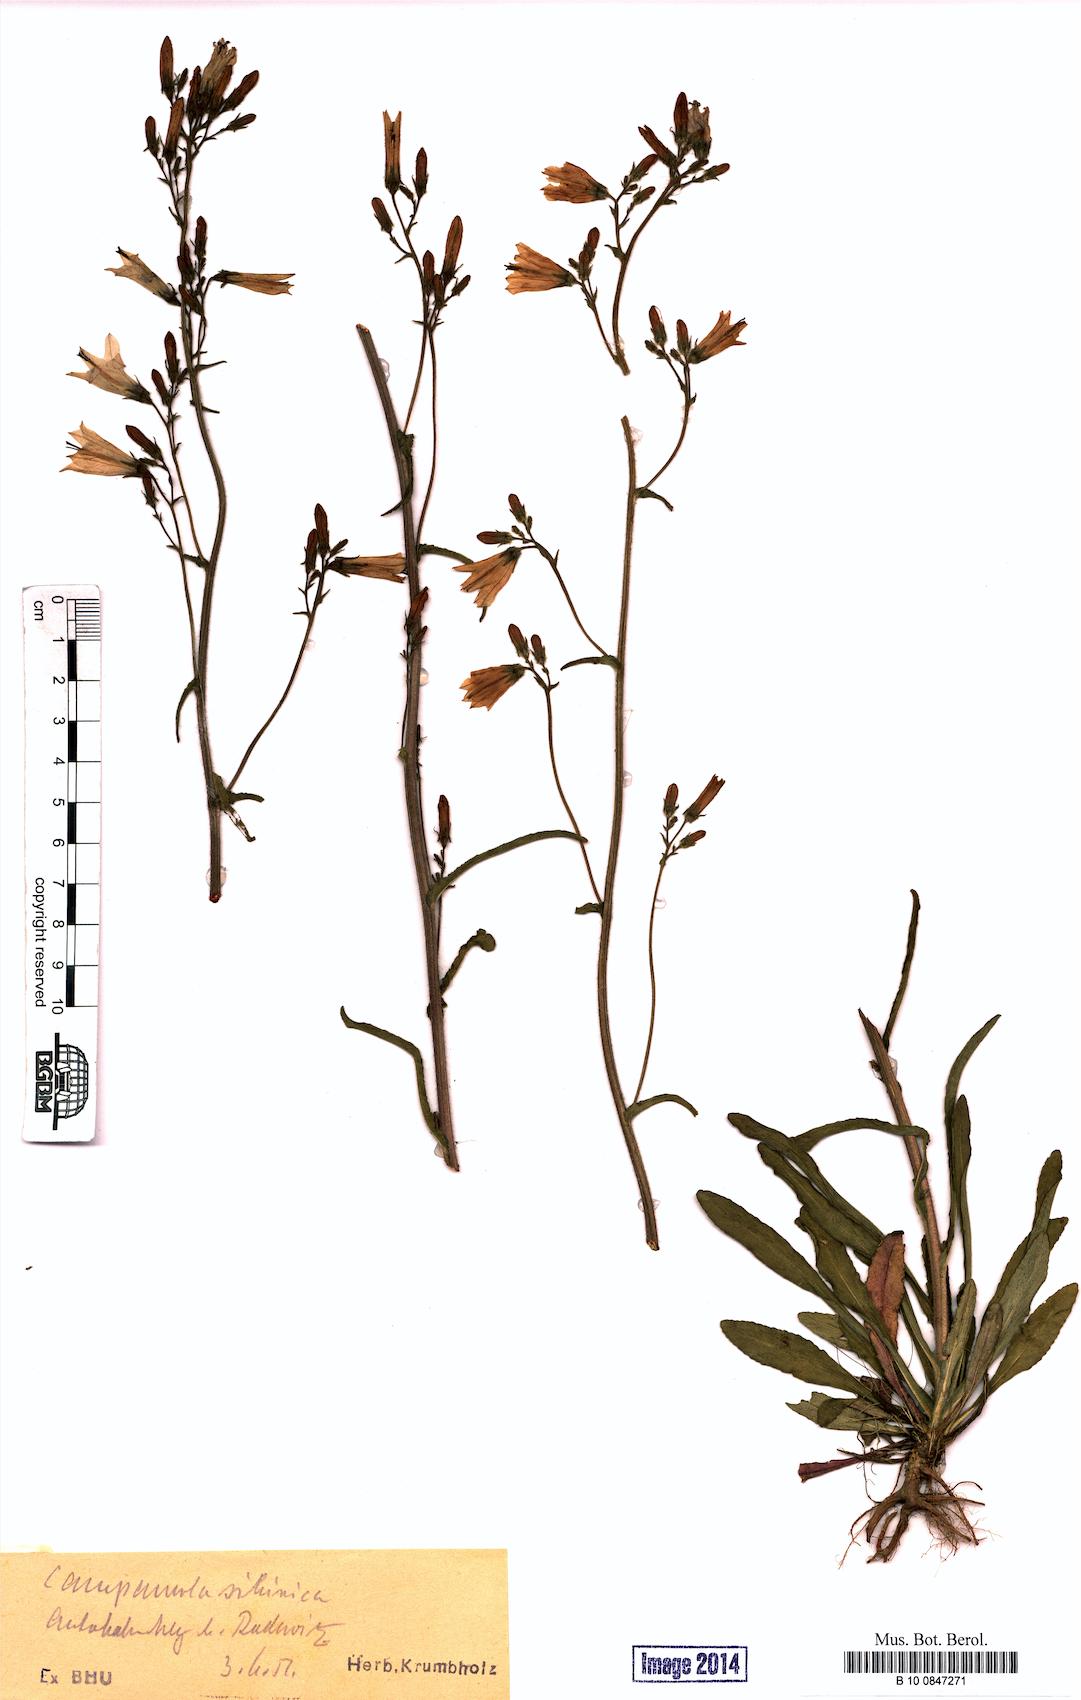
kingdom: Plantae
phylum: Tracheophyta
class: Magnoliopsida
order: Asterales
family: Campanulaceae
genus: Campanula
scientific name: Campanula sibirica
